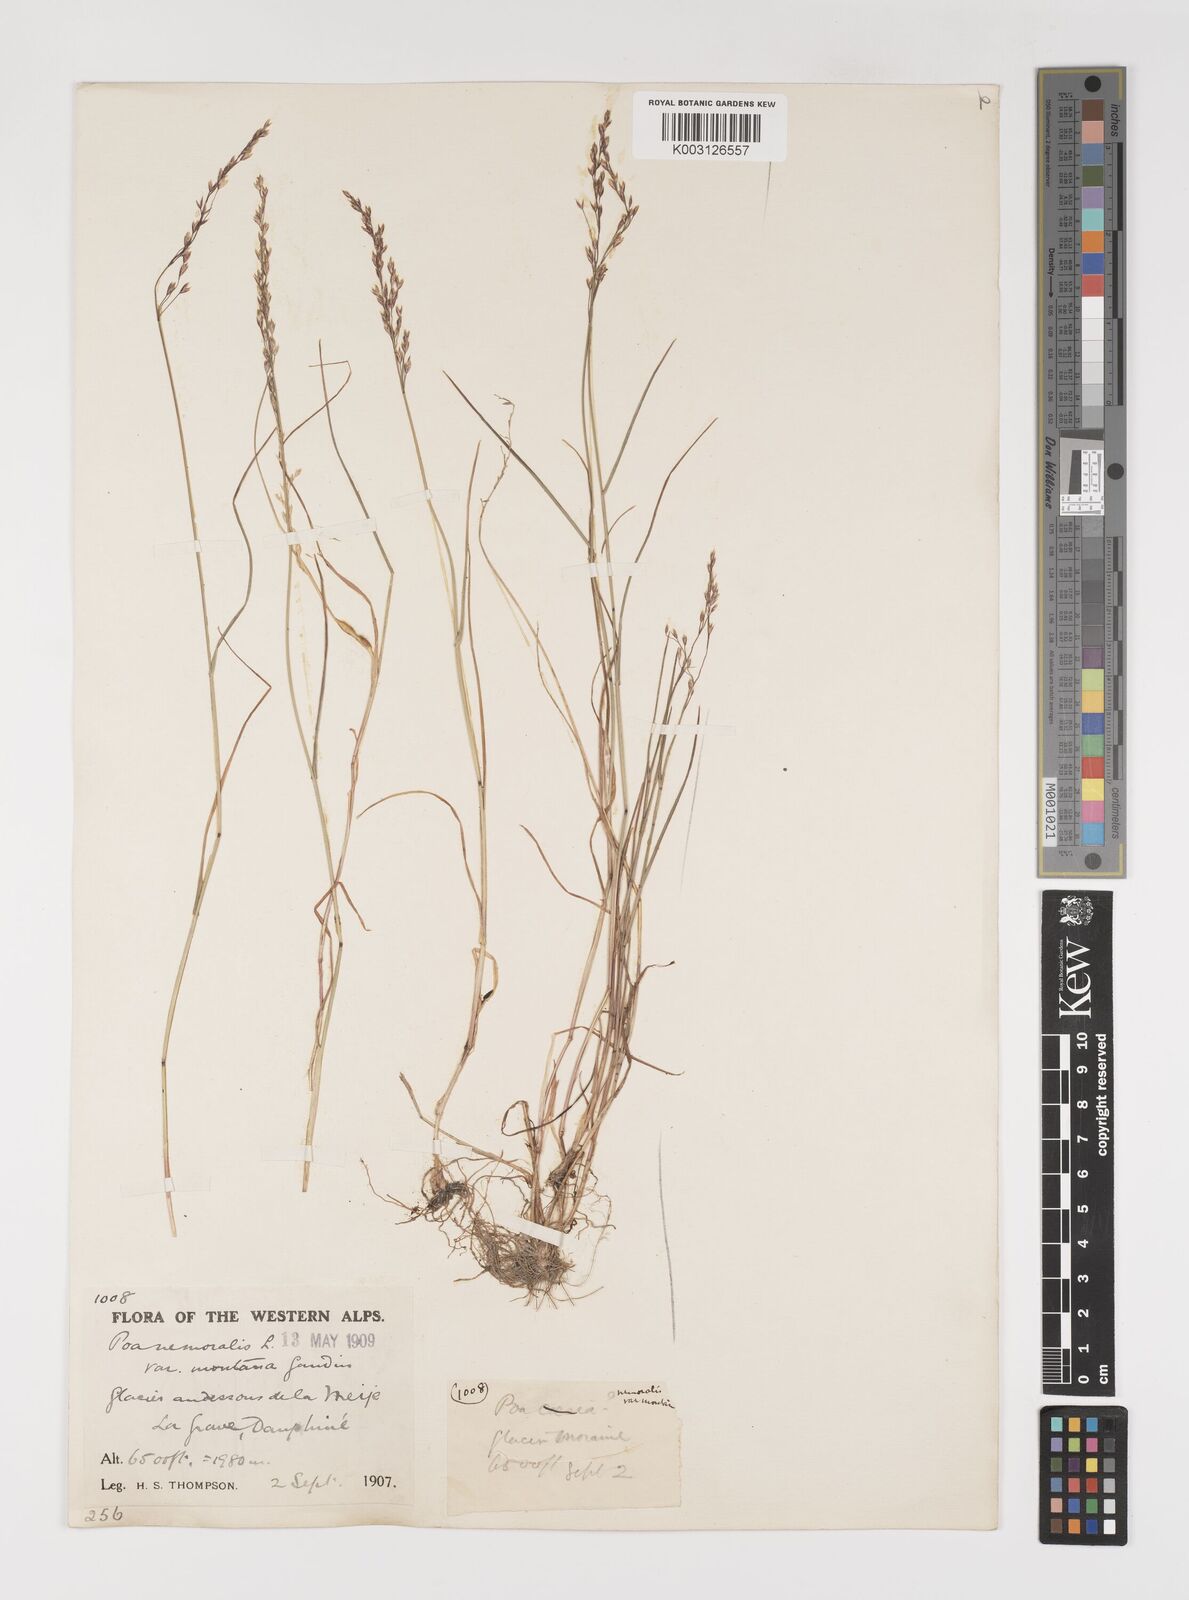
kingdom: Plantae
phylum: Tracheophyta
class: Liliopsida
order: Poales
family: Poaceae
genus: Poa
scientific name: Poa nemoralis
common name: Wood bluegrass
